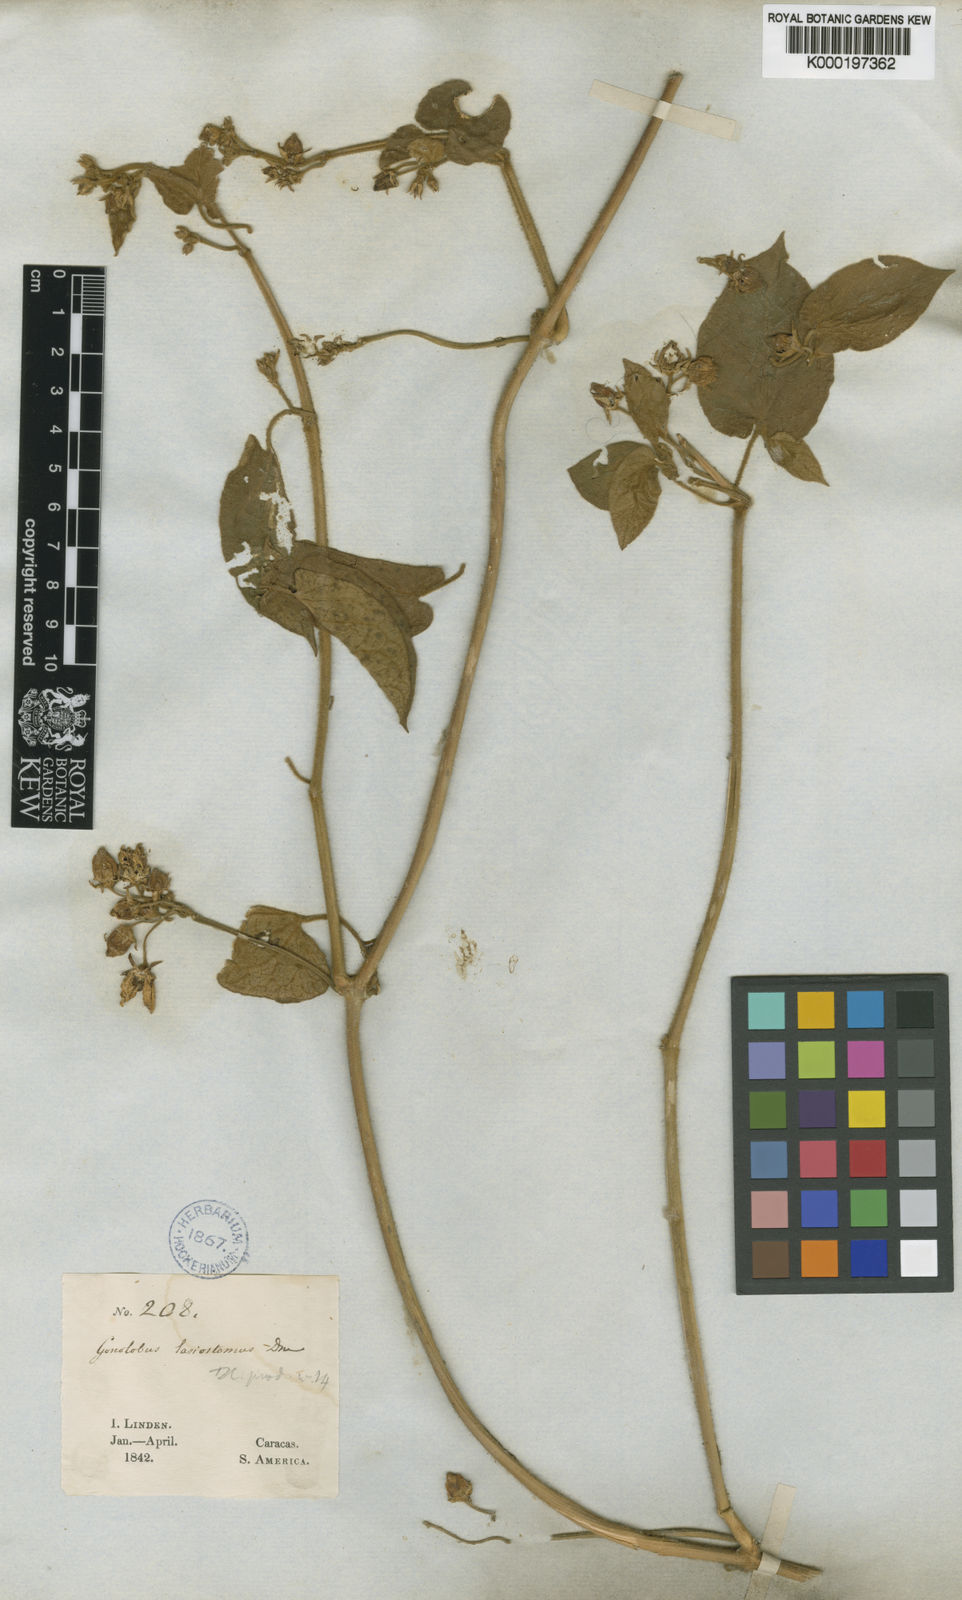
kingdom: Plantae
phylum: Tracheophyta
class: Magnoliopsida
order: Gentianales
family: Apocynaceae
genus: Gonolobus
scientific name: Gonolobus lasiostomus
